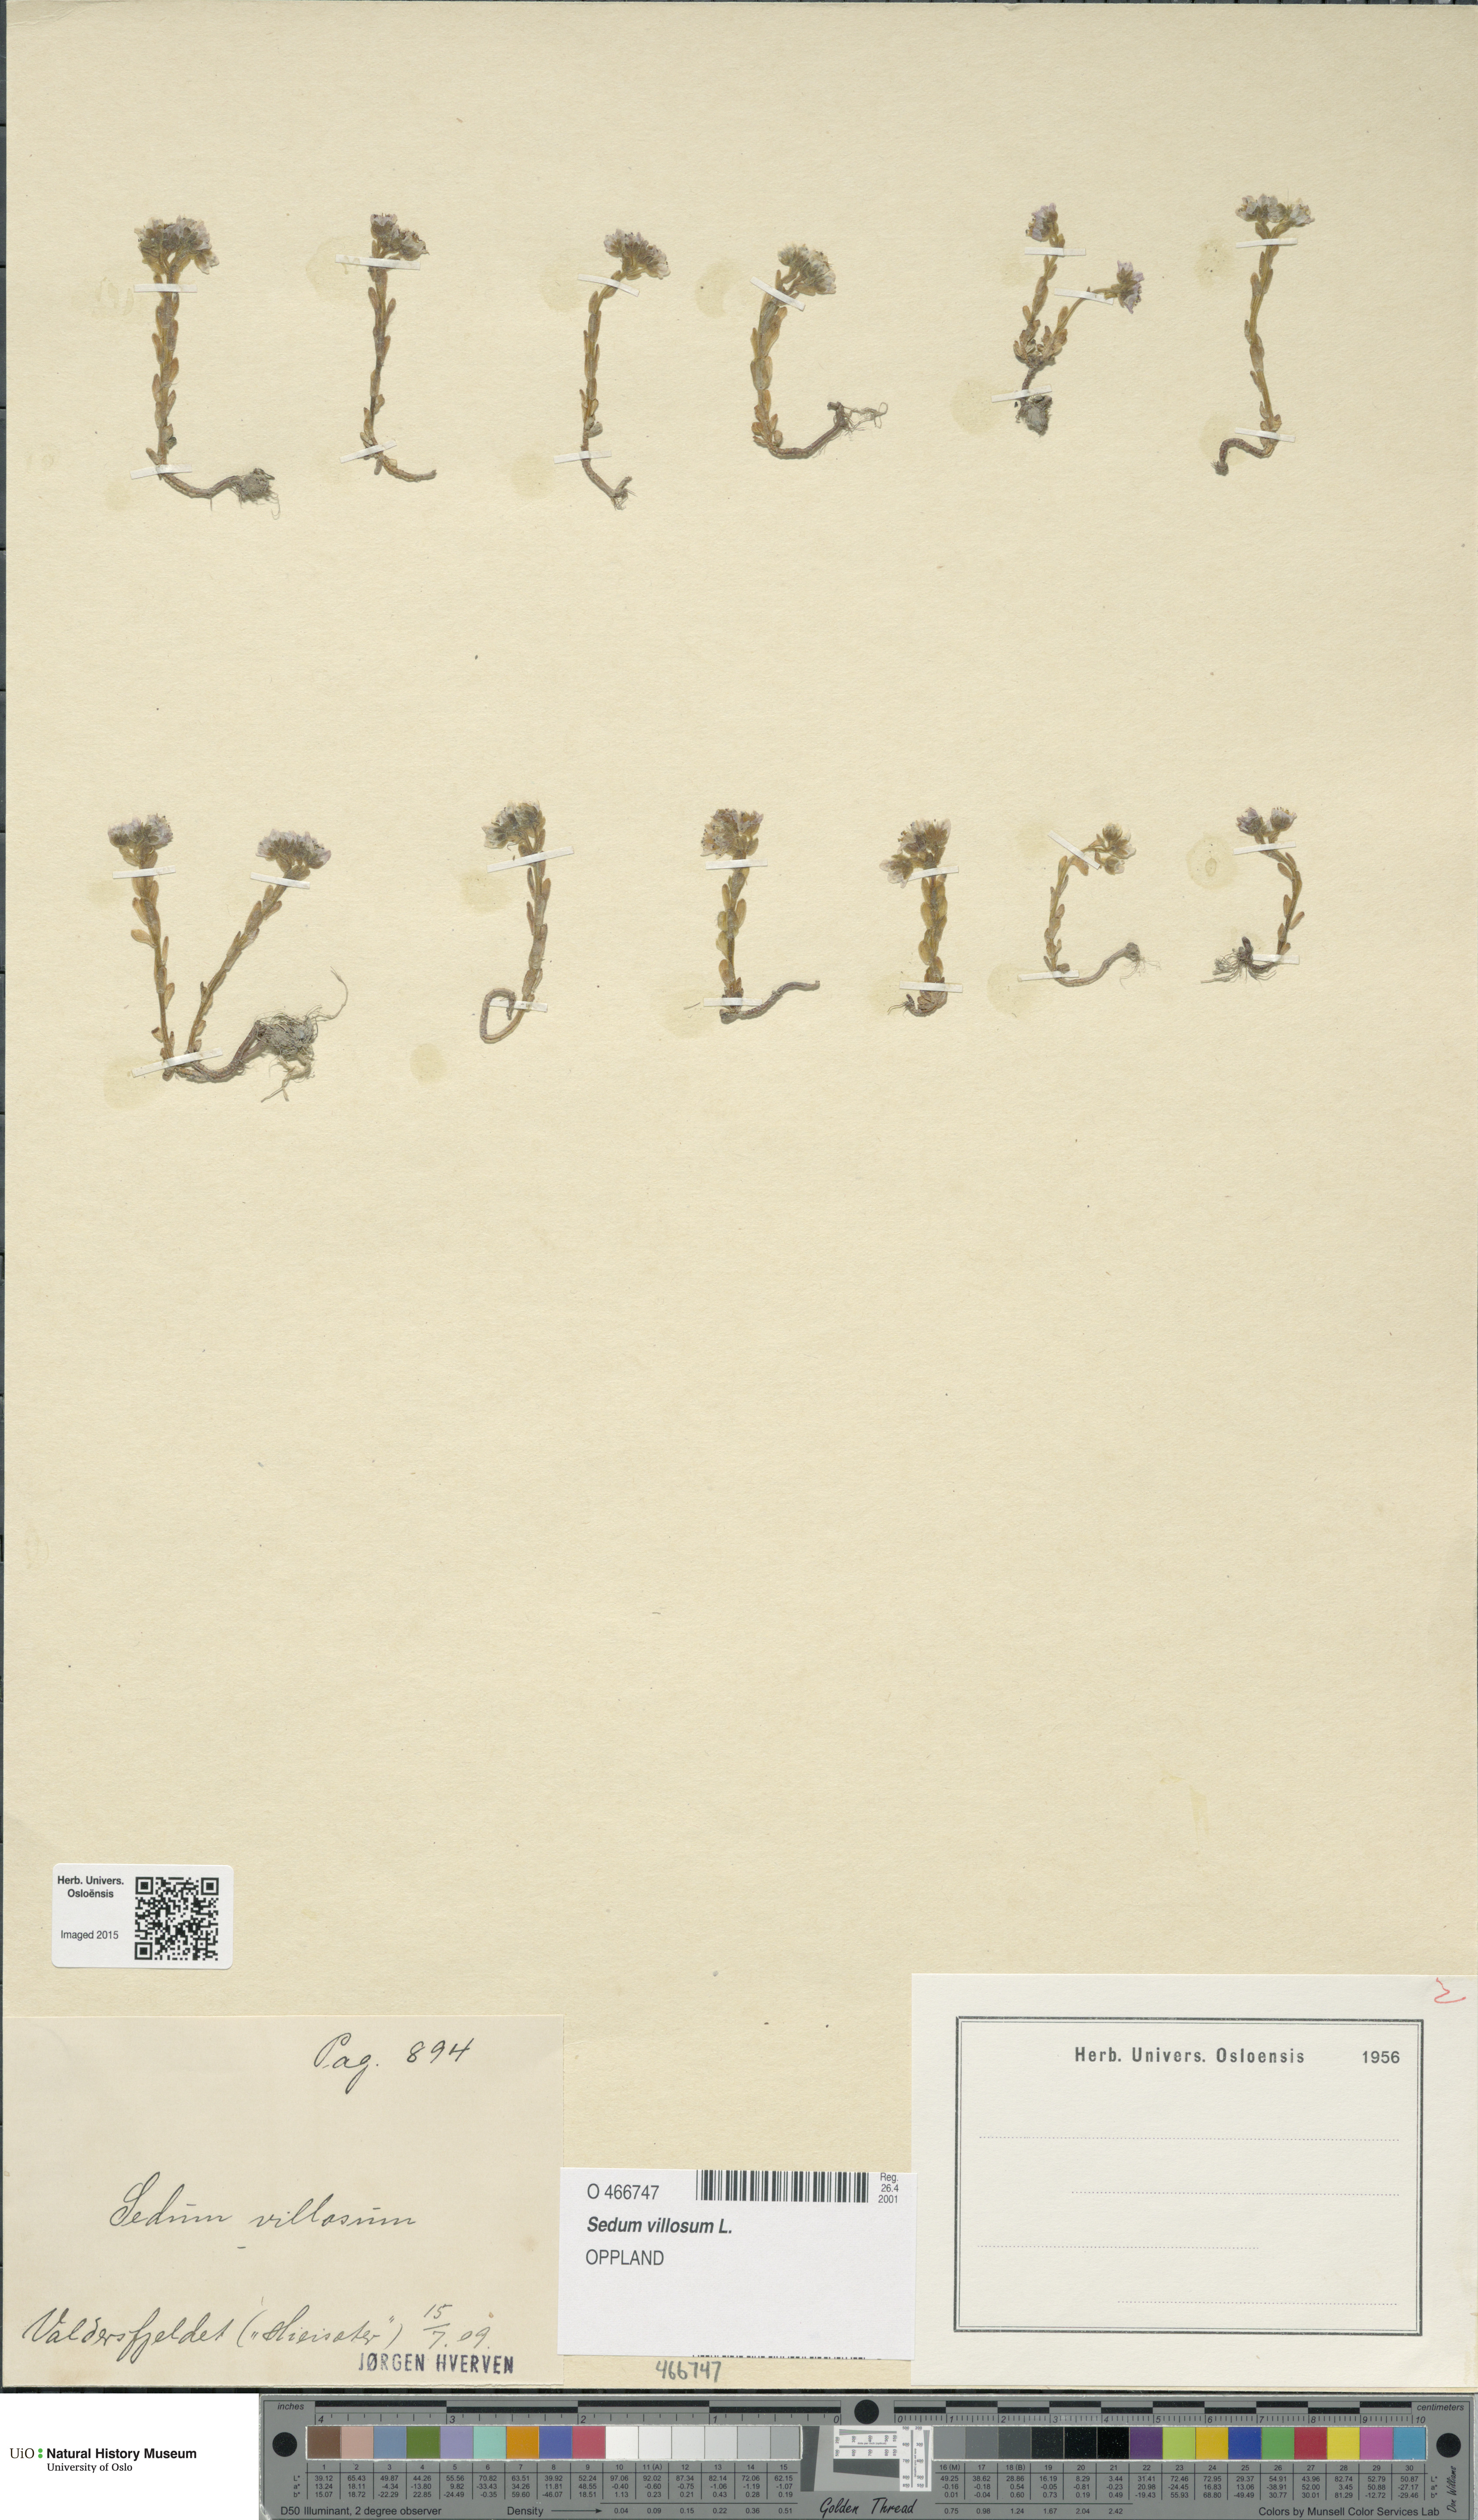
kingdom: Plantae
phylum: Tracheophyta
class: Magnoliopsida
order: Saxifragales
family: Crassulaceae
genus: Sedum
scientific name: Sedum villosum
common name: Hairy stonecrop
